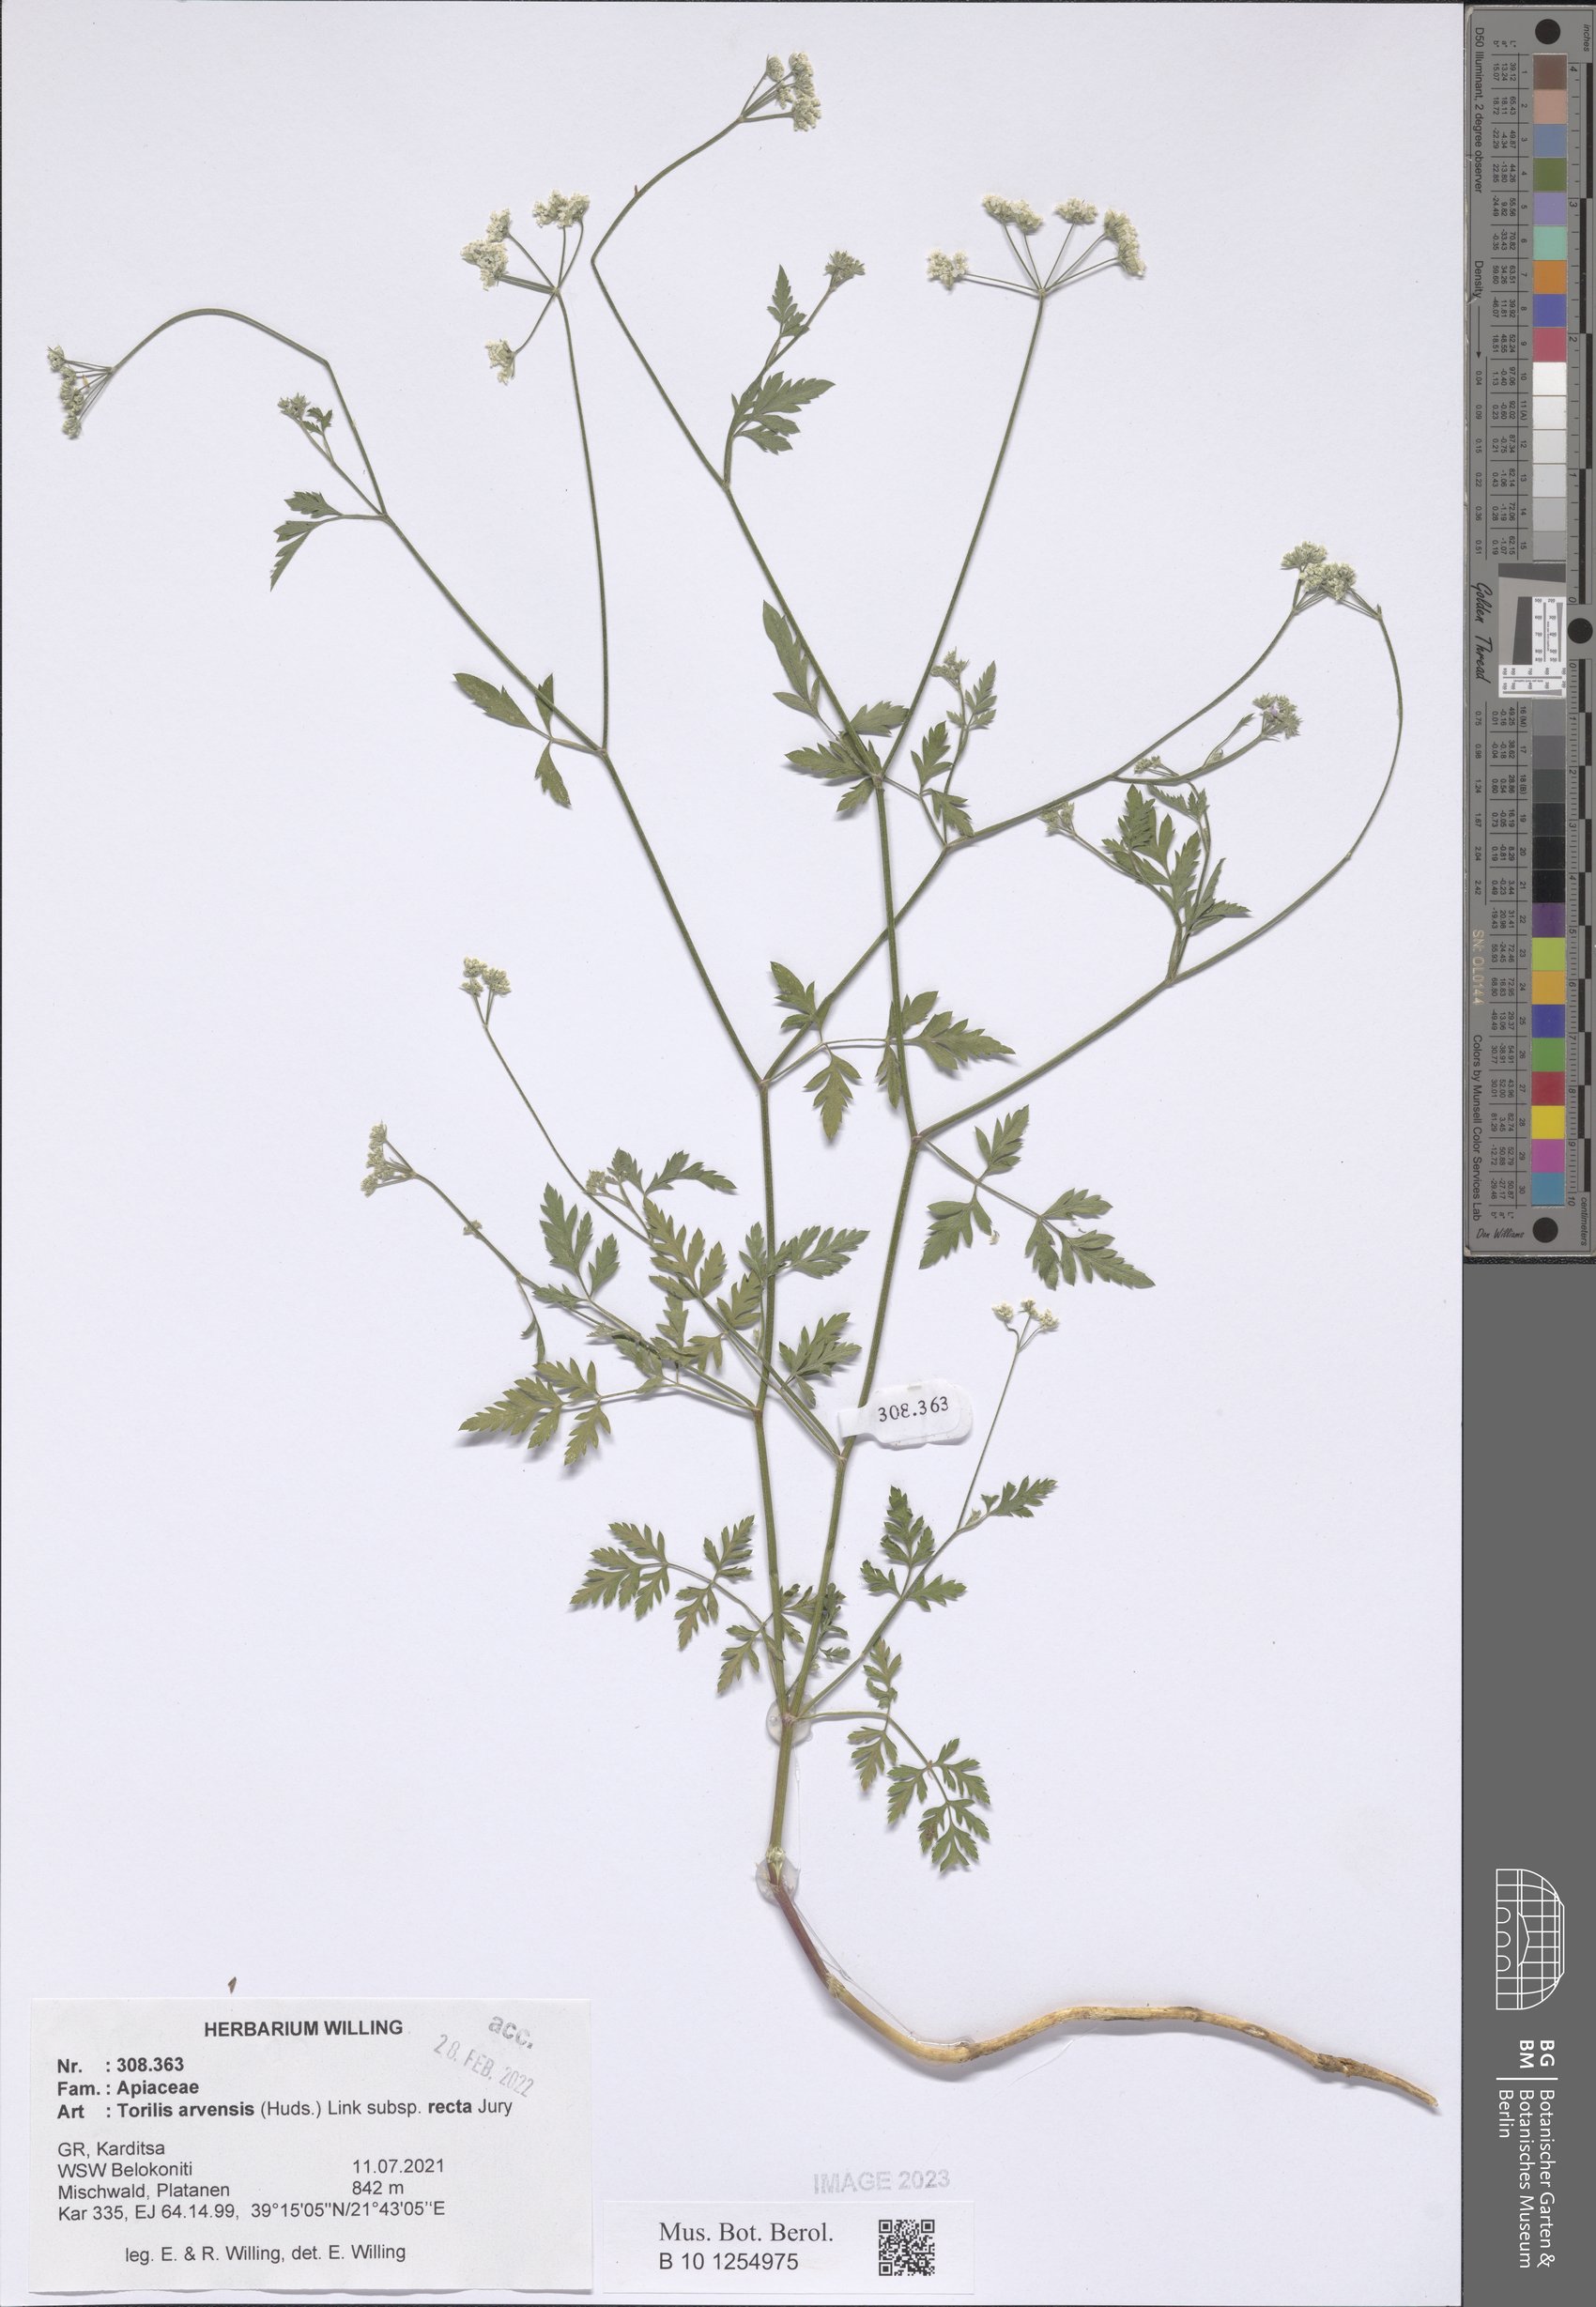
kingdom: Plantae
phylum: Tracheophyta
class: Magnoliopsida
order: Apiales
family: Apiaceae
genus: Torilis
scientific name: Torilis arvensis
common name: Spreading hedge-parsley
